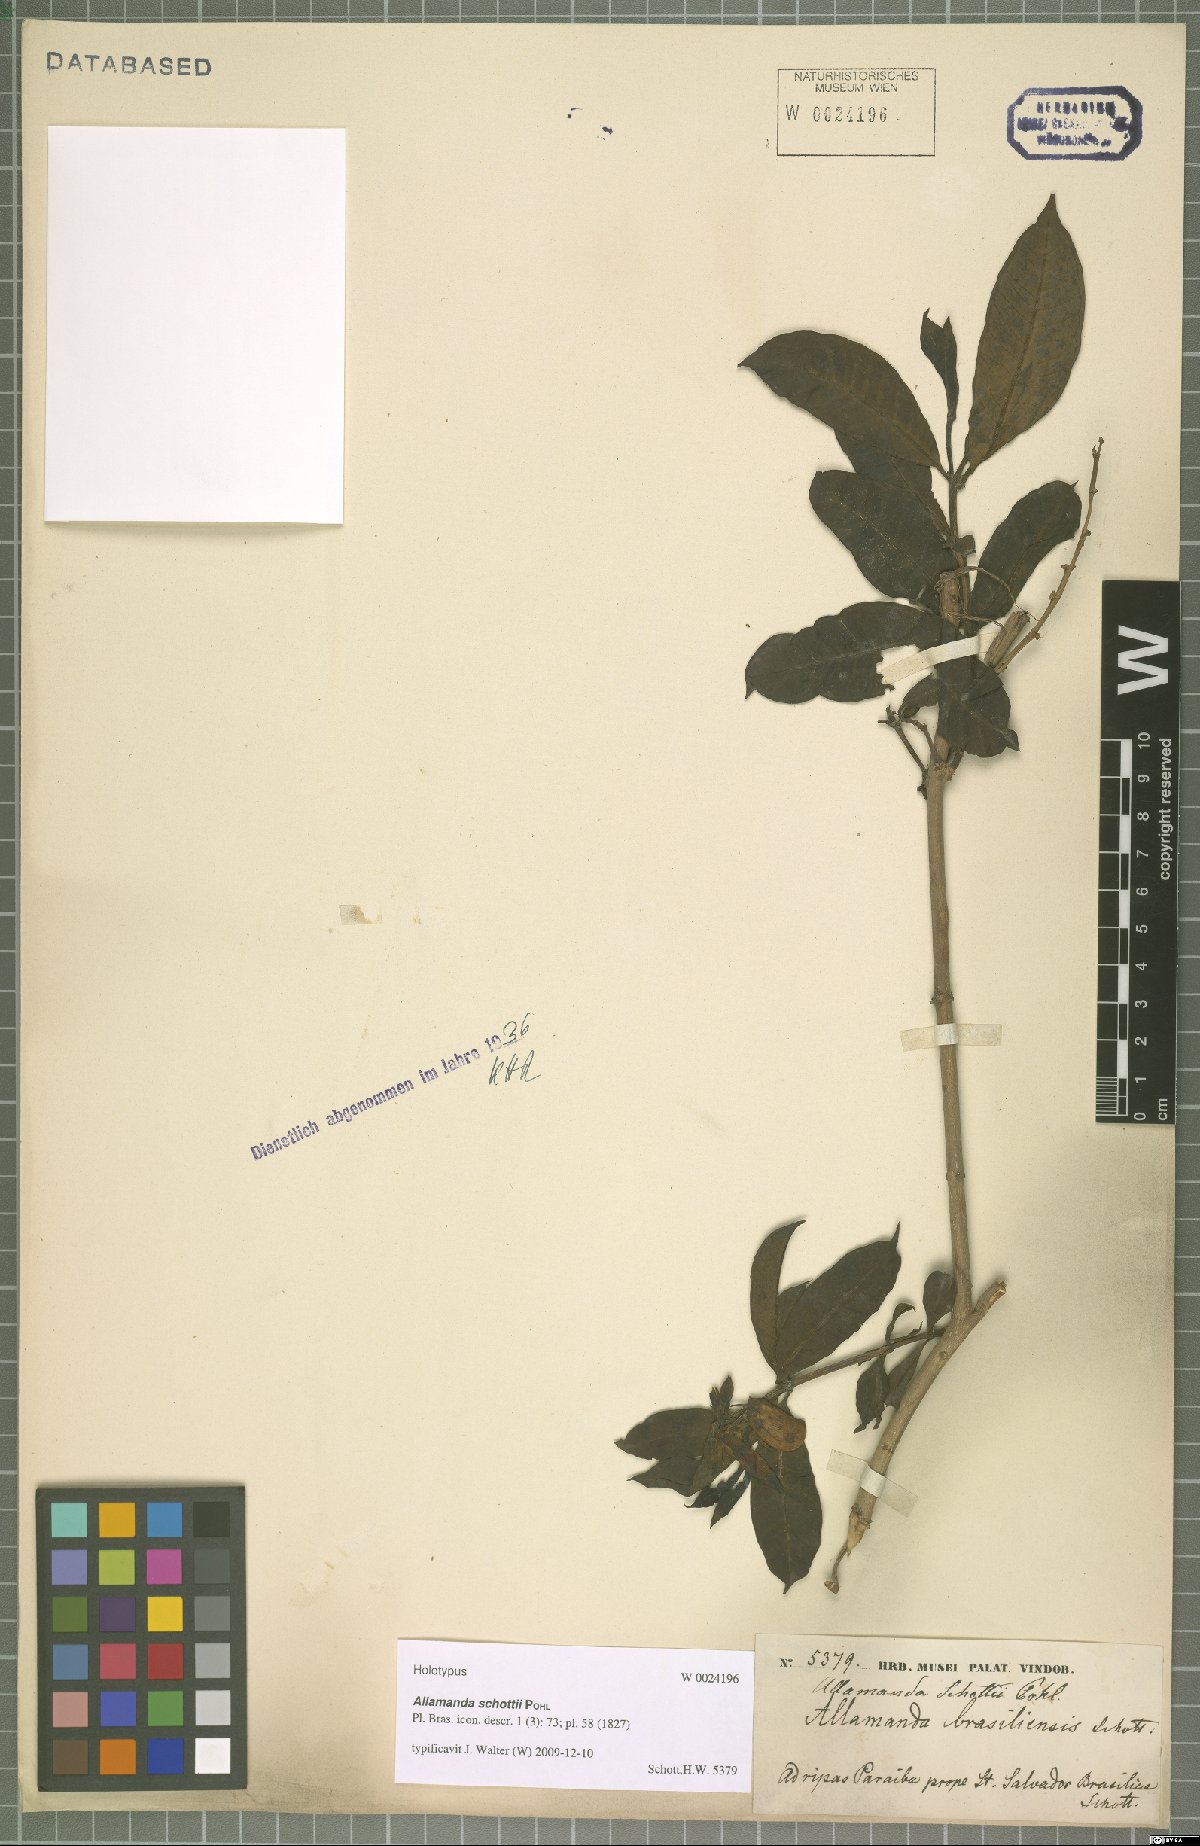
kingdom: Plantae
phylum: Tracheophyta
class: Magnoliopsida
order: Gentianales
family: Apocynaceae
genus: Allamanda
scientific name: Allamanda schottii
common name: Bush allamanda
